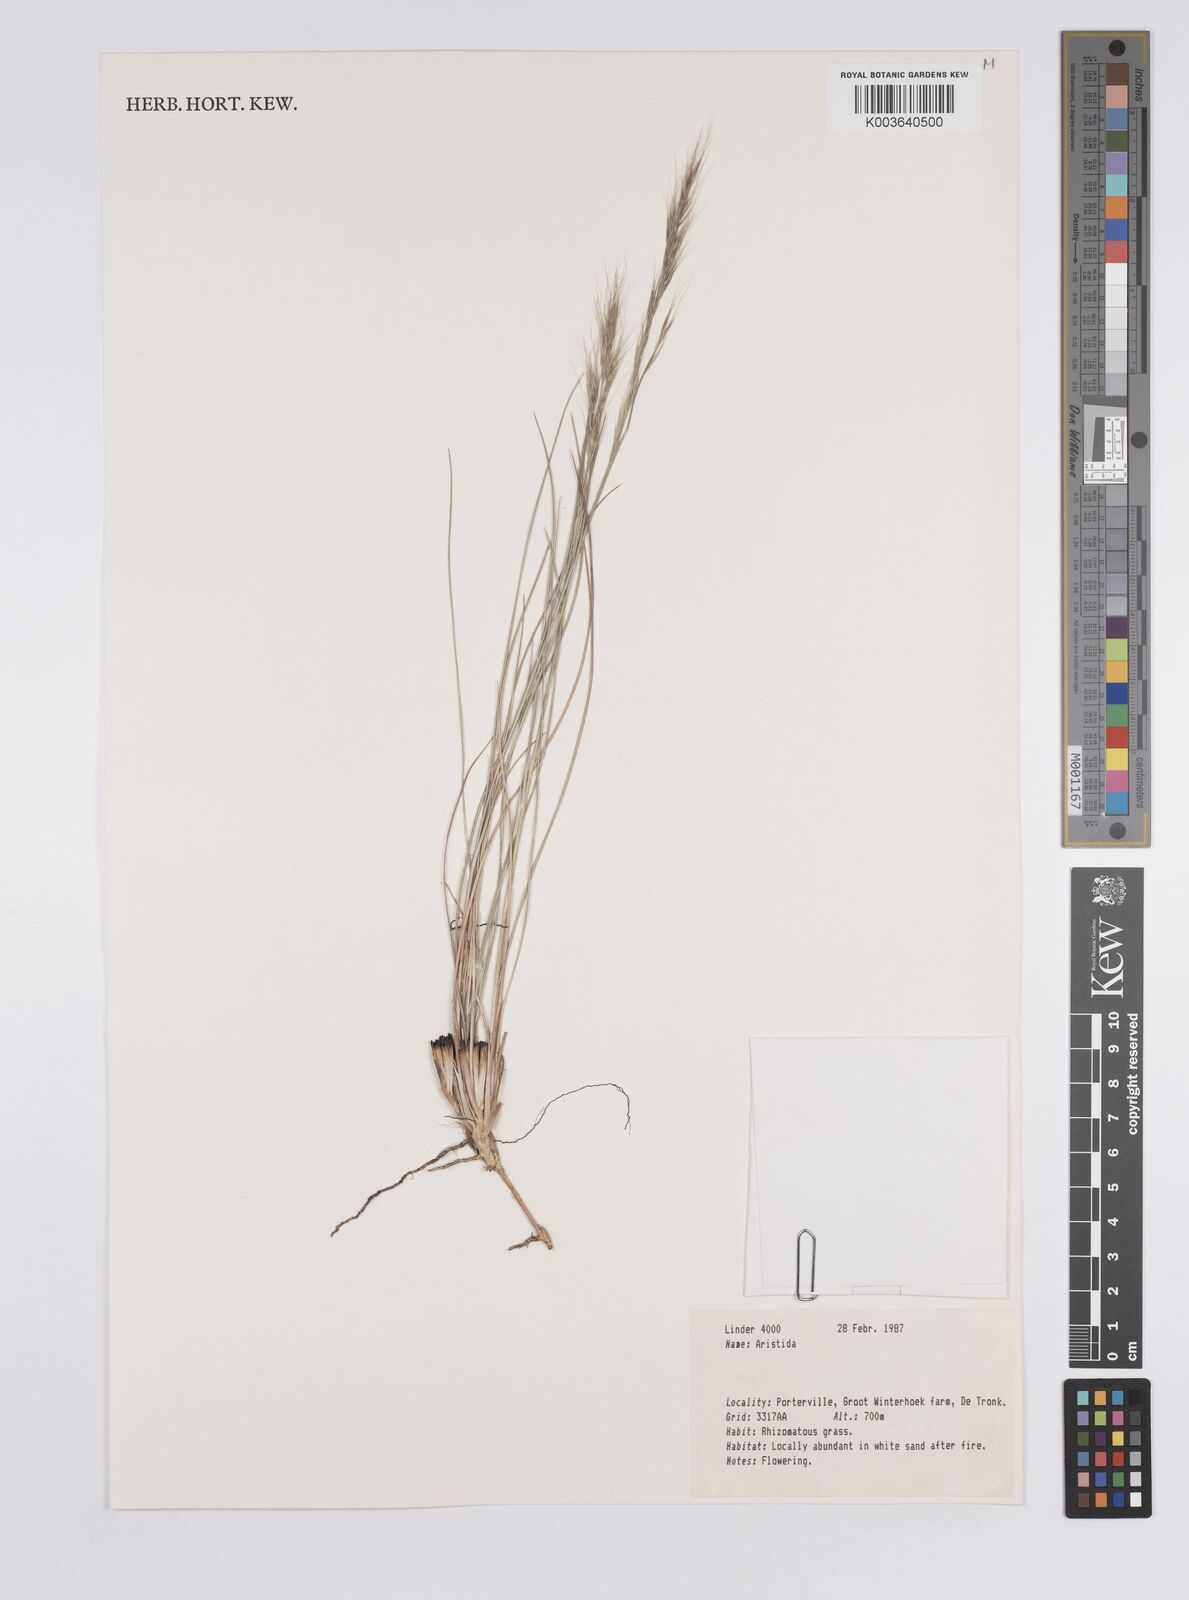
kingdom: Plantae
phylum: Tracheophyta
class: Liliopsida
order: Poales
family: Poaceae
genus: Aristida
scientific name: Aristida
